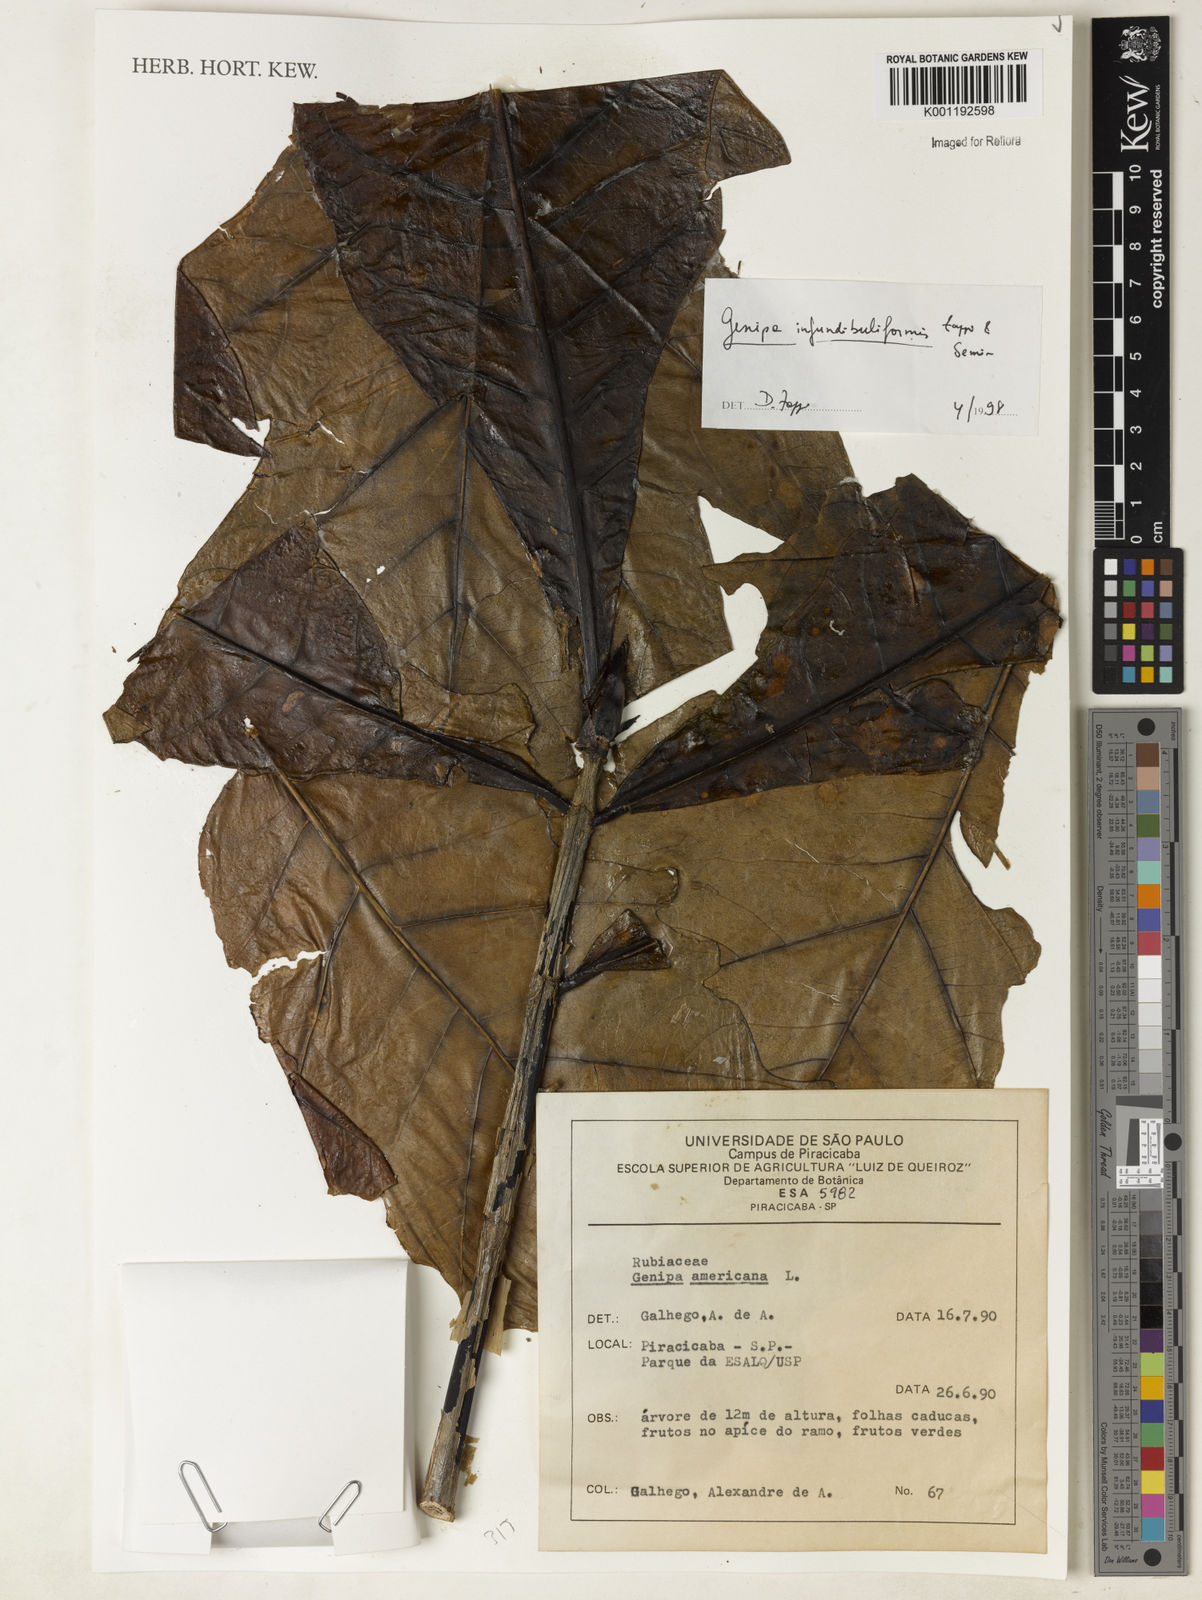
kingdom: Plantae
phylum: Tracheophyta
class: Magnoliopsida
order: Gentianales
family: Rubiaceae
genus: Genipa
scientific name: Genipa infundibuliformis
